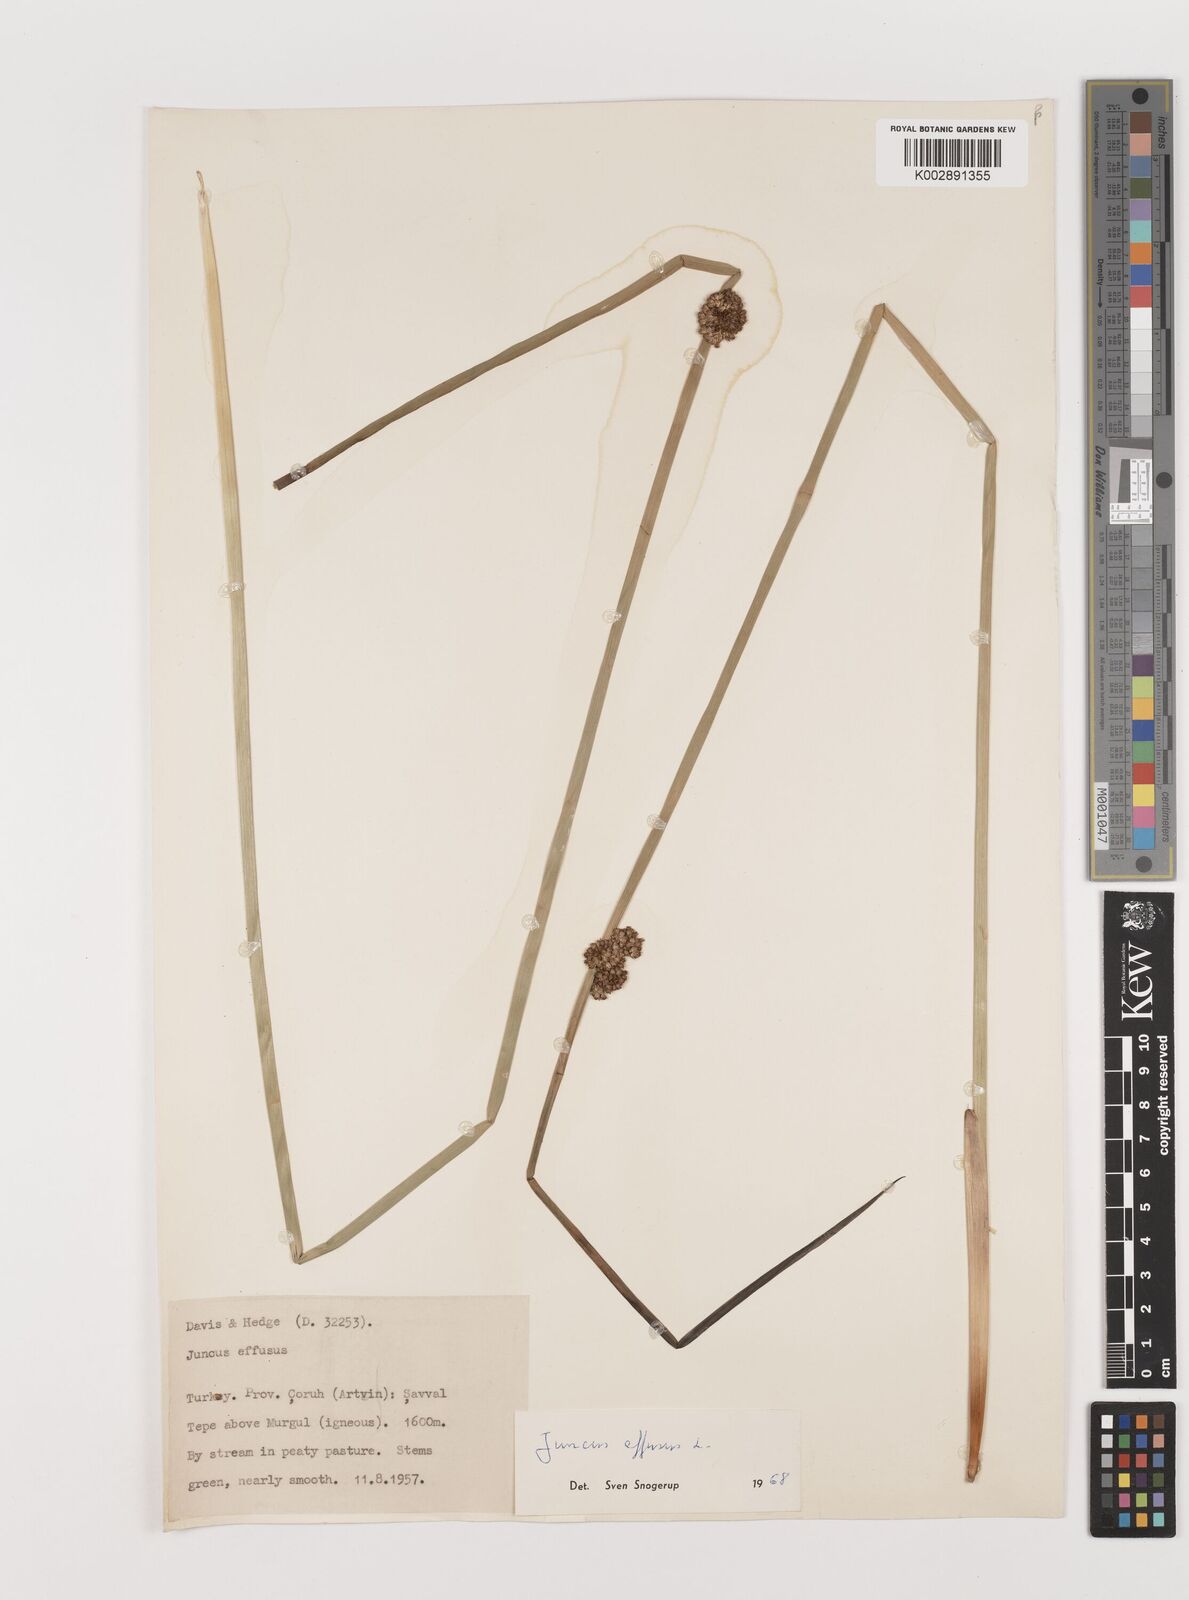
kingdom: Plantae
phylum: Tracheophyta
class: Liliopsida
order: Poales
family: Juncaceae
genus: Juncus
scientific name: Juncus effusus
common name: Soft rush
